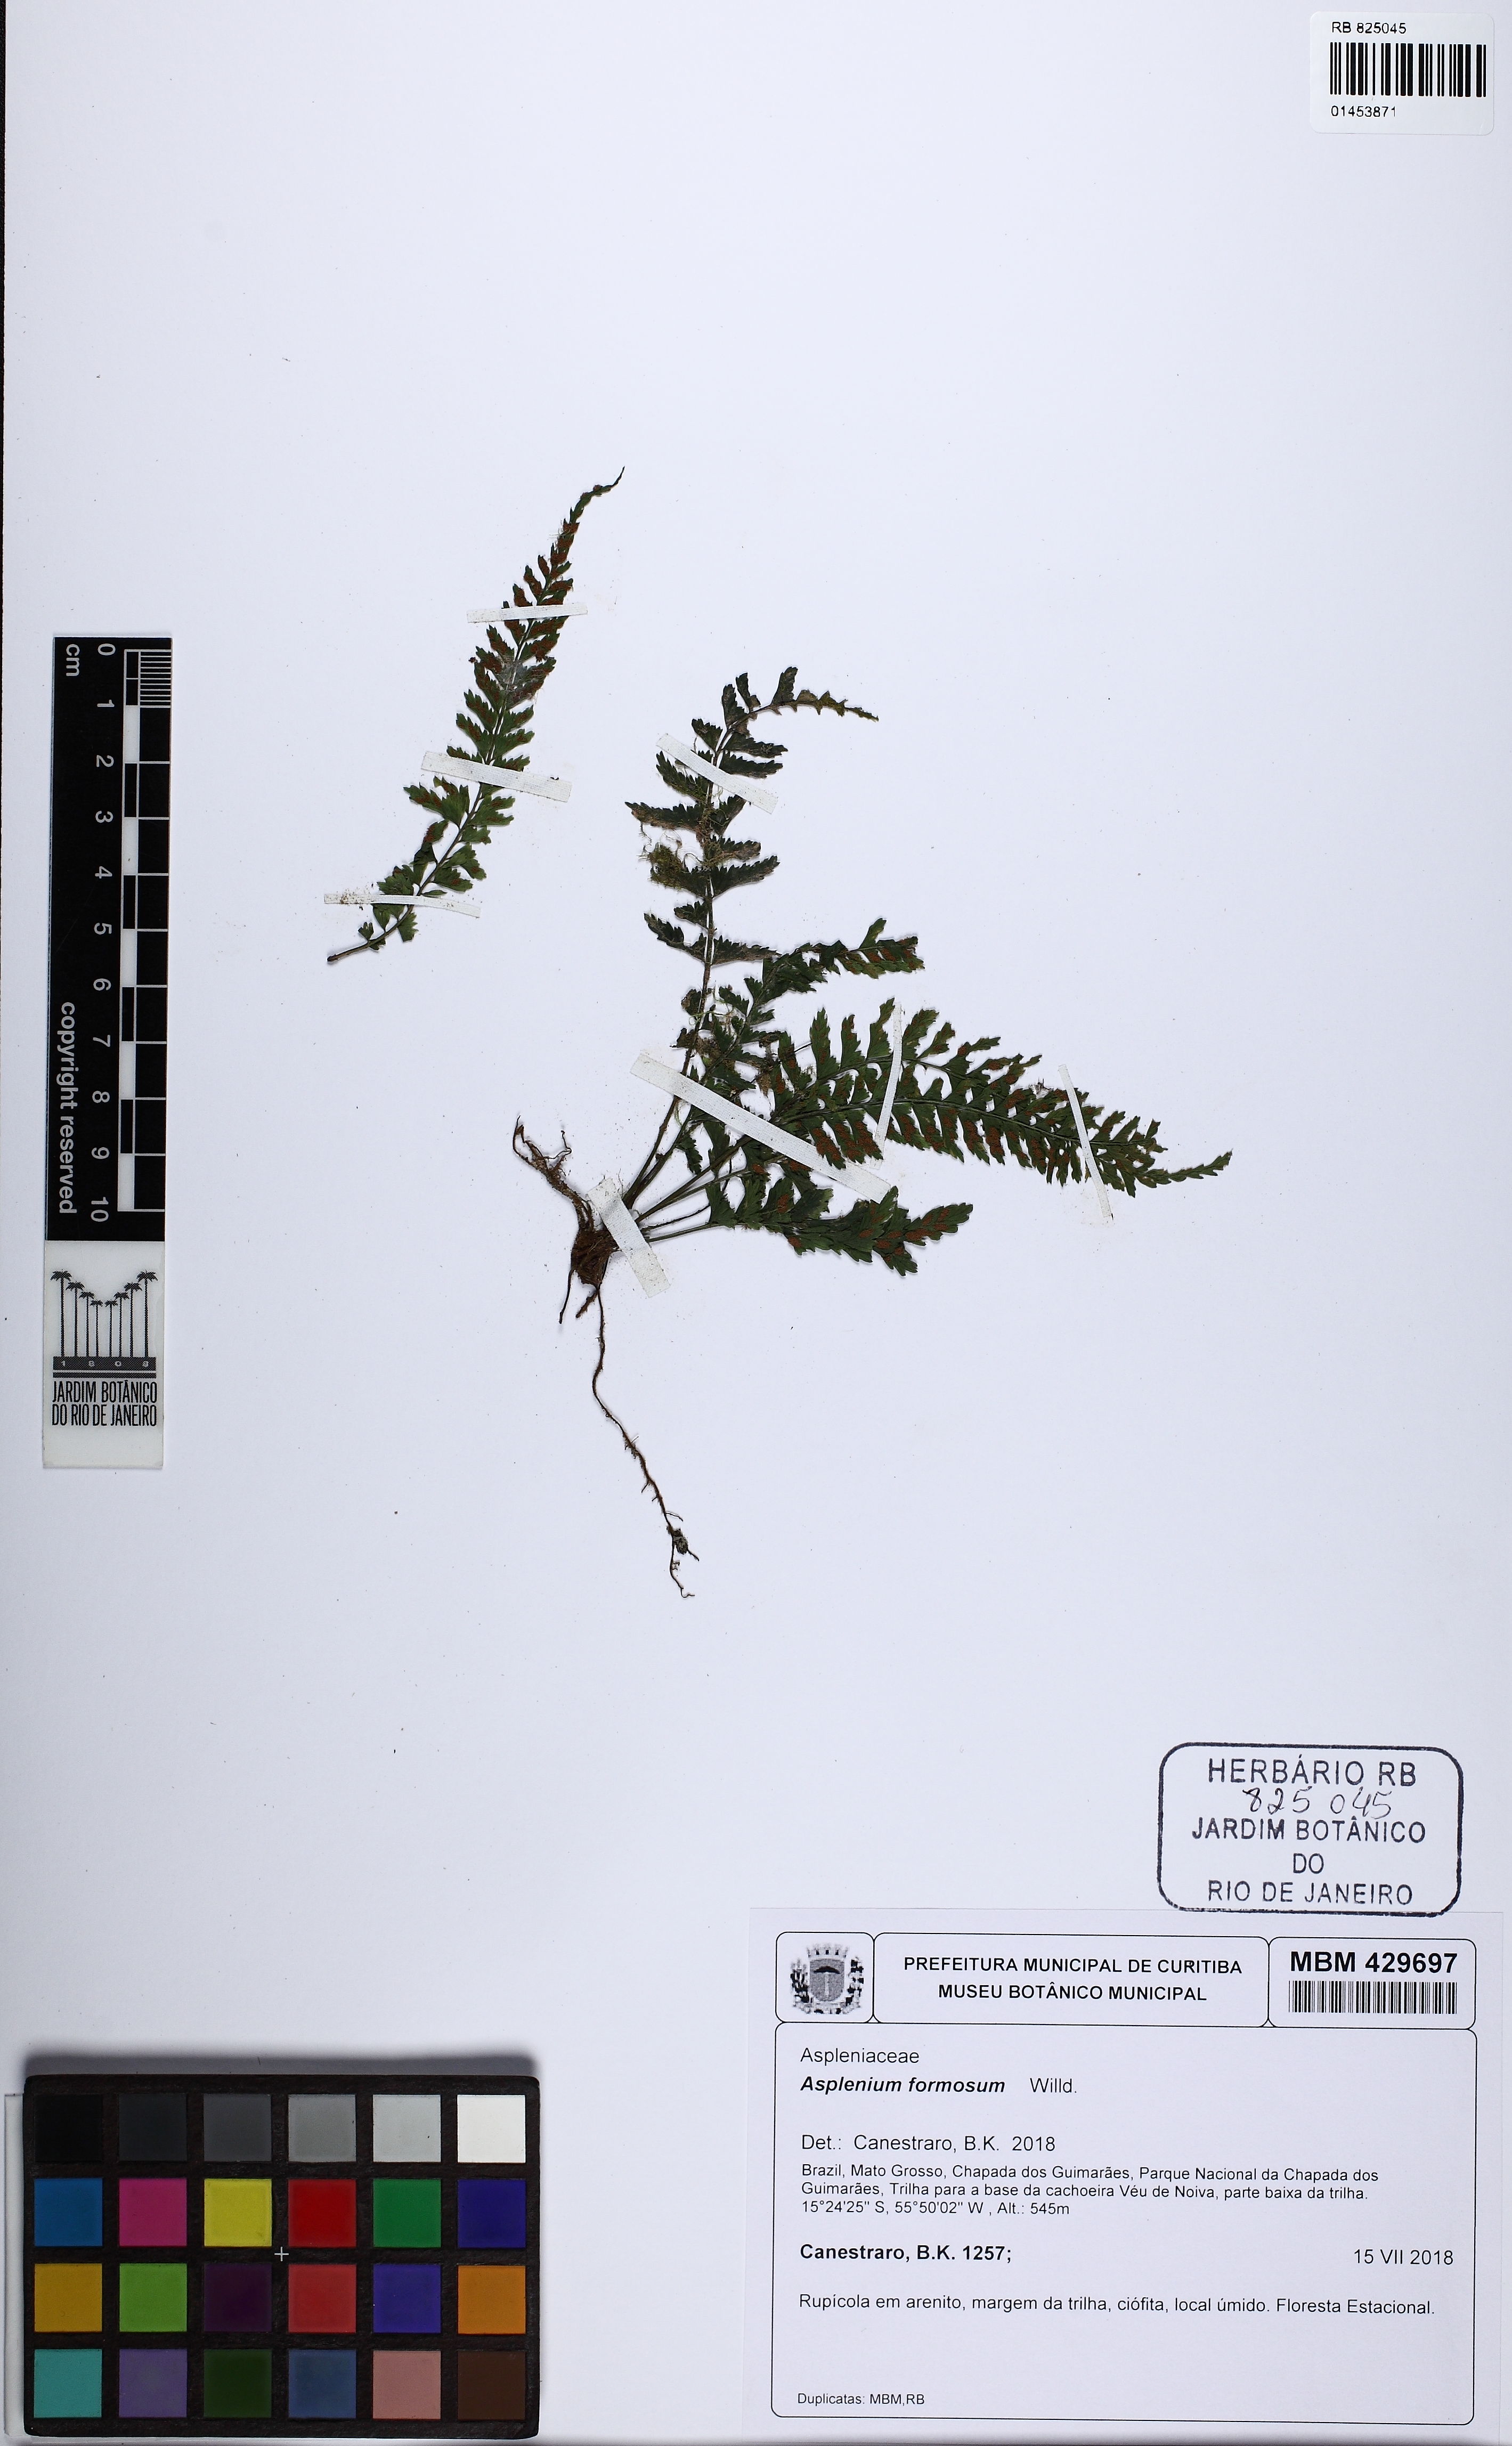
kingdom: Plantae
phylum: Tracheophyta
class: Polypodiopsida
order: Polypodiales
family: Aspleniaceae
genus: Asplenium
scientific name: Asplenium formosum
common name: Showy spleenwort
